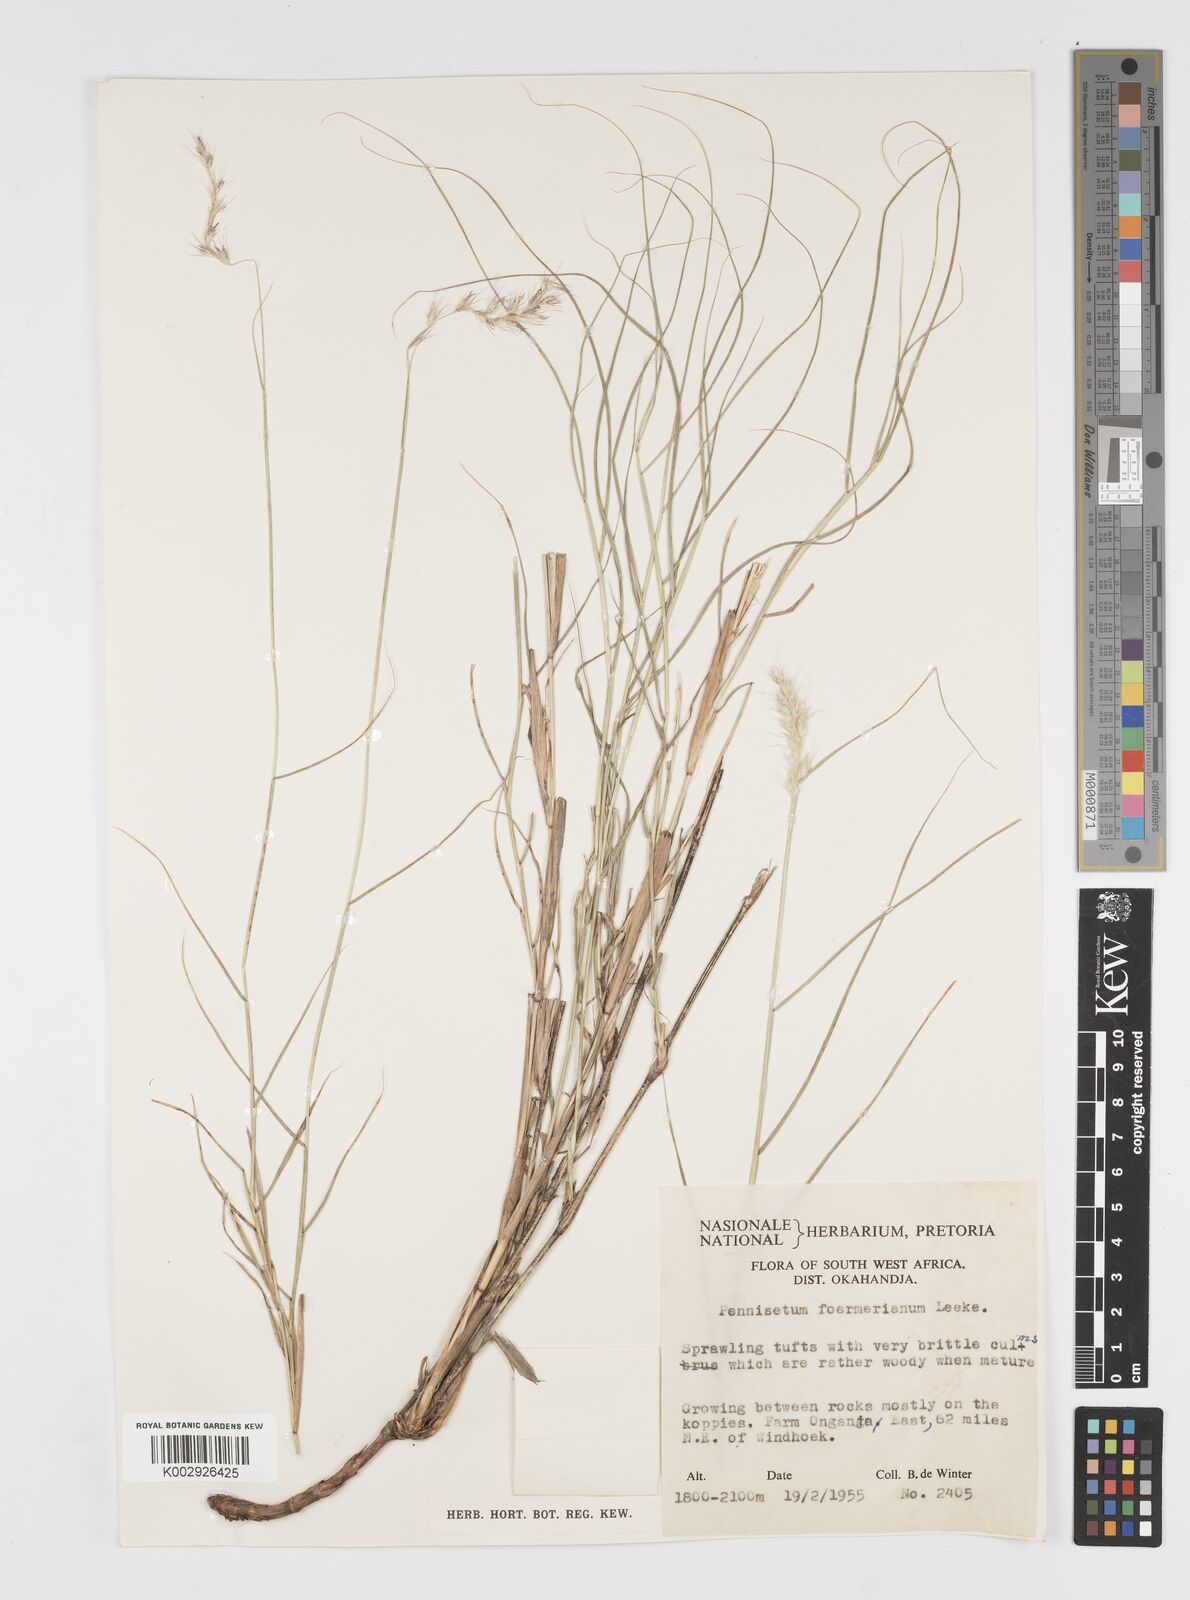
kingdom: Plantae
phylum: Tracheophyta
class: Liliopsida
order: Poales
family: Poaceae
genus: Cenchrus
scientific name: Cenchrus foermerianus
